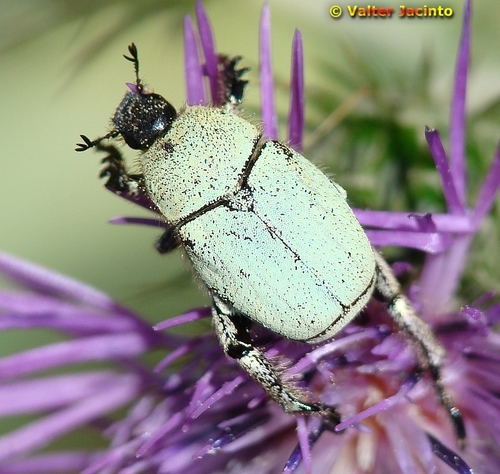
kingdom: Animalia
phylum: Arthropoda
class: Insecta
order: Coleoptera
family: Scarabaeidae
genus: Hoplia
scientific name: Hoplia chlorophana
